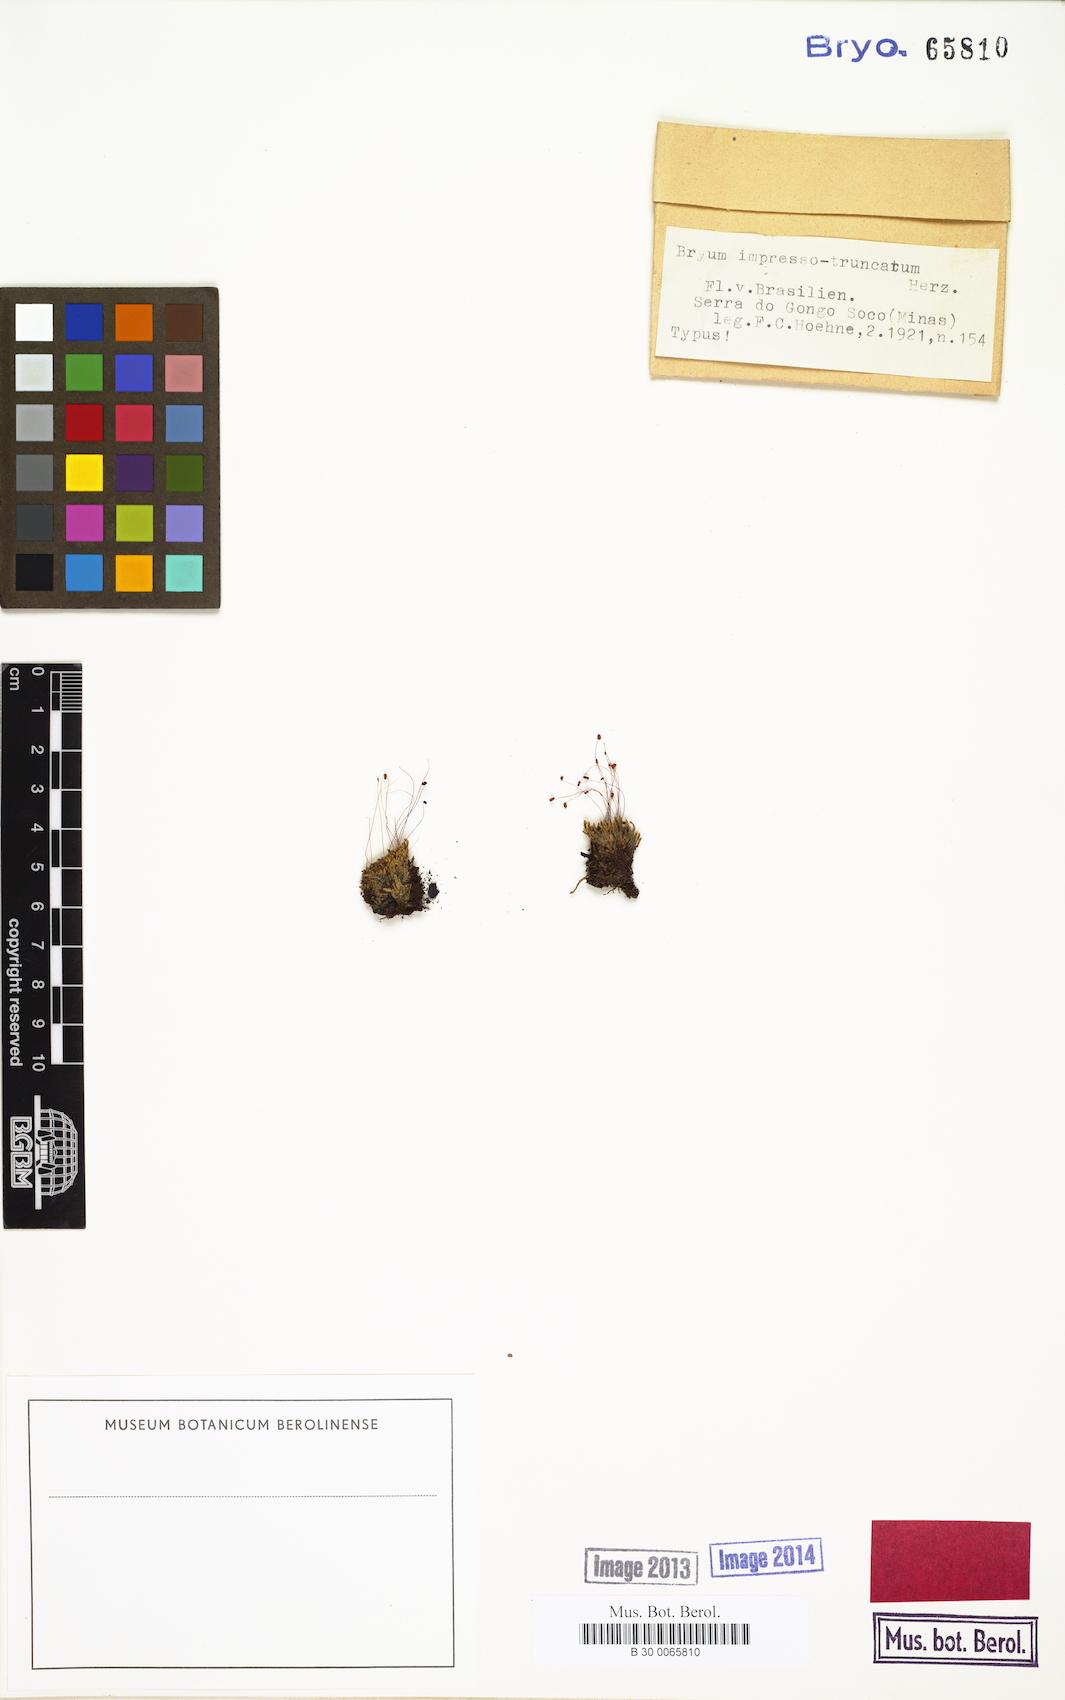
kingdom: Plantae
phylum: Bryophyta
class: Bryopsida
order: Bryales
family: Bryaceae
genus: Bryum
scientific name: Bryum arachnoideum
